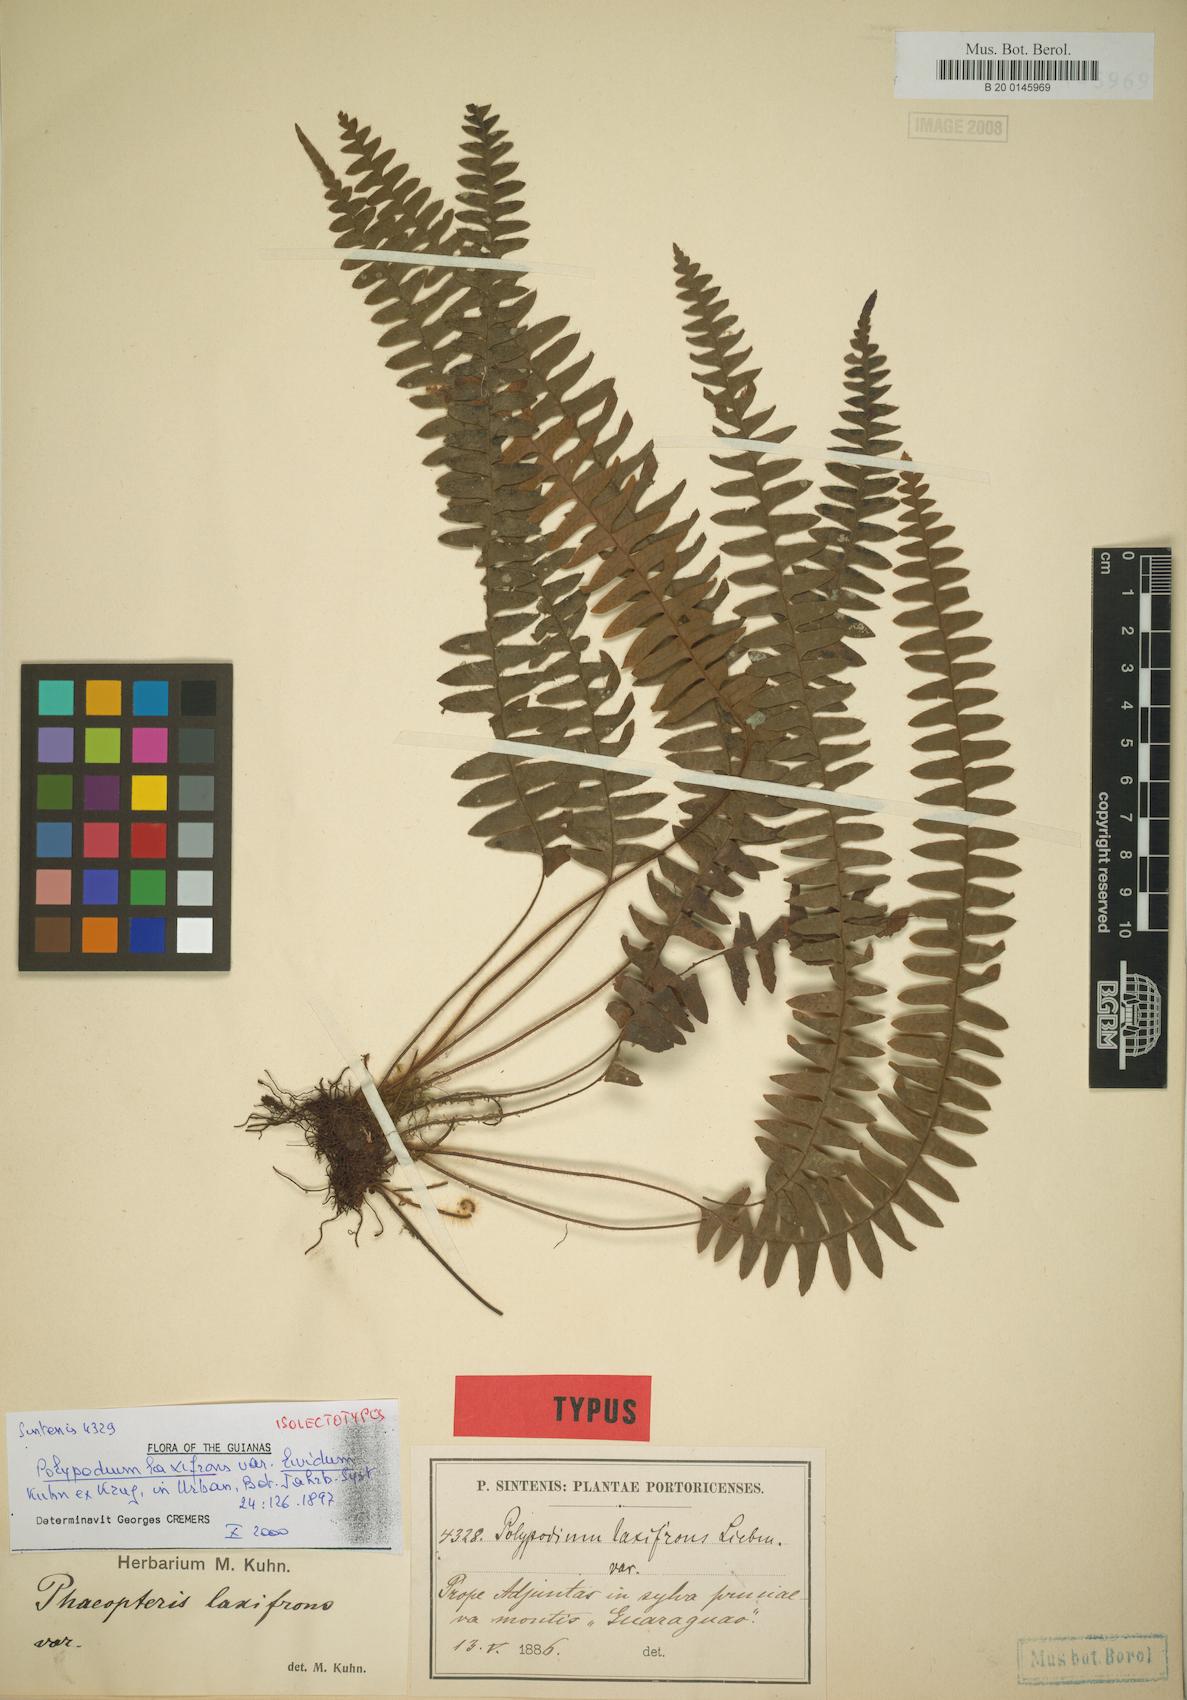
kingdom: Plantae
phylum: Tracheophyta
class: Polypodiopsida
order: Polypodiales
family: Polypodiaceae
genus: Terpsichore
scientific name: Terpsichore asplenifolia
